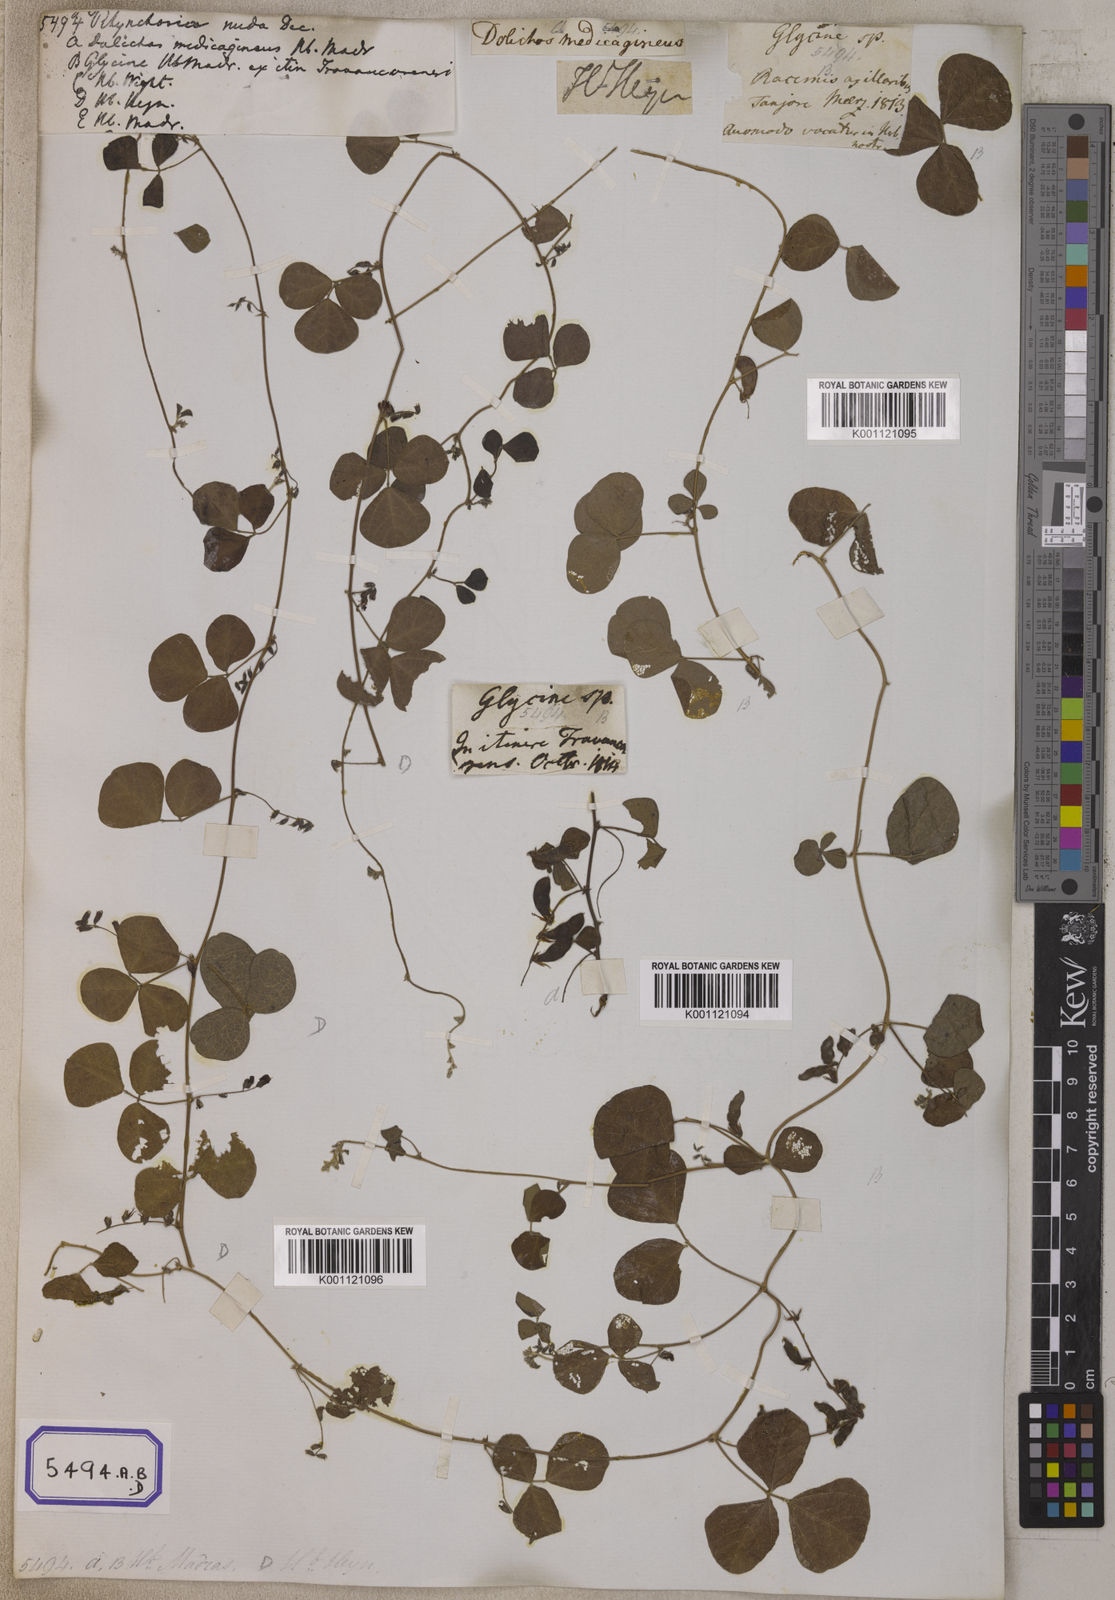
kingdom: Plantae
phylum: Tracheophyta
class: Magnoliopsida
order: Fabales
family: Fabaceae
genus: Rhynchosia
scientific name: Rhynchosia minima
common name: Least snoutbean
